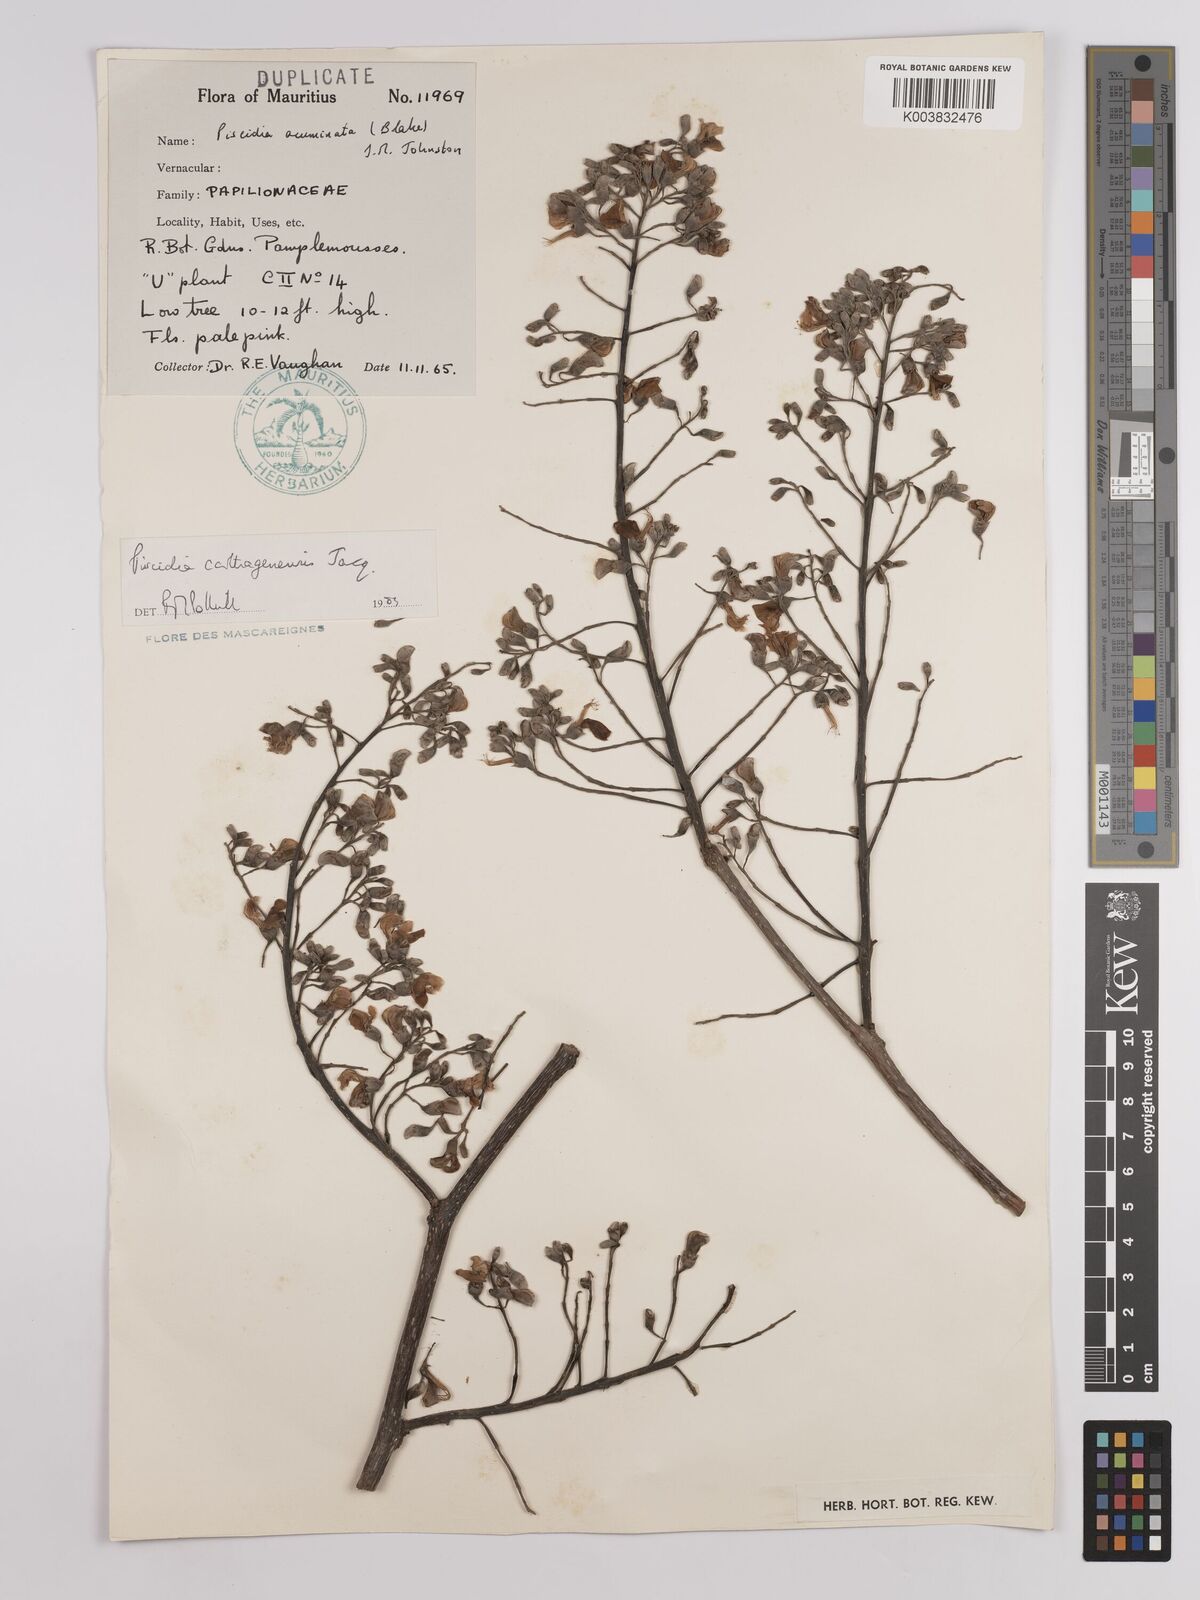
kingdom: Plantae
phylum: Tracheophyta
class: Magnoliopsida
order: Fabales
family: Fabaceae
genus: Piscidia
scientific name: Piscidia carthagenensis
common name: Stinkwood
